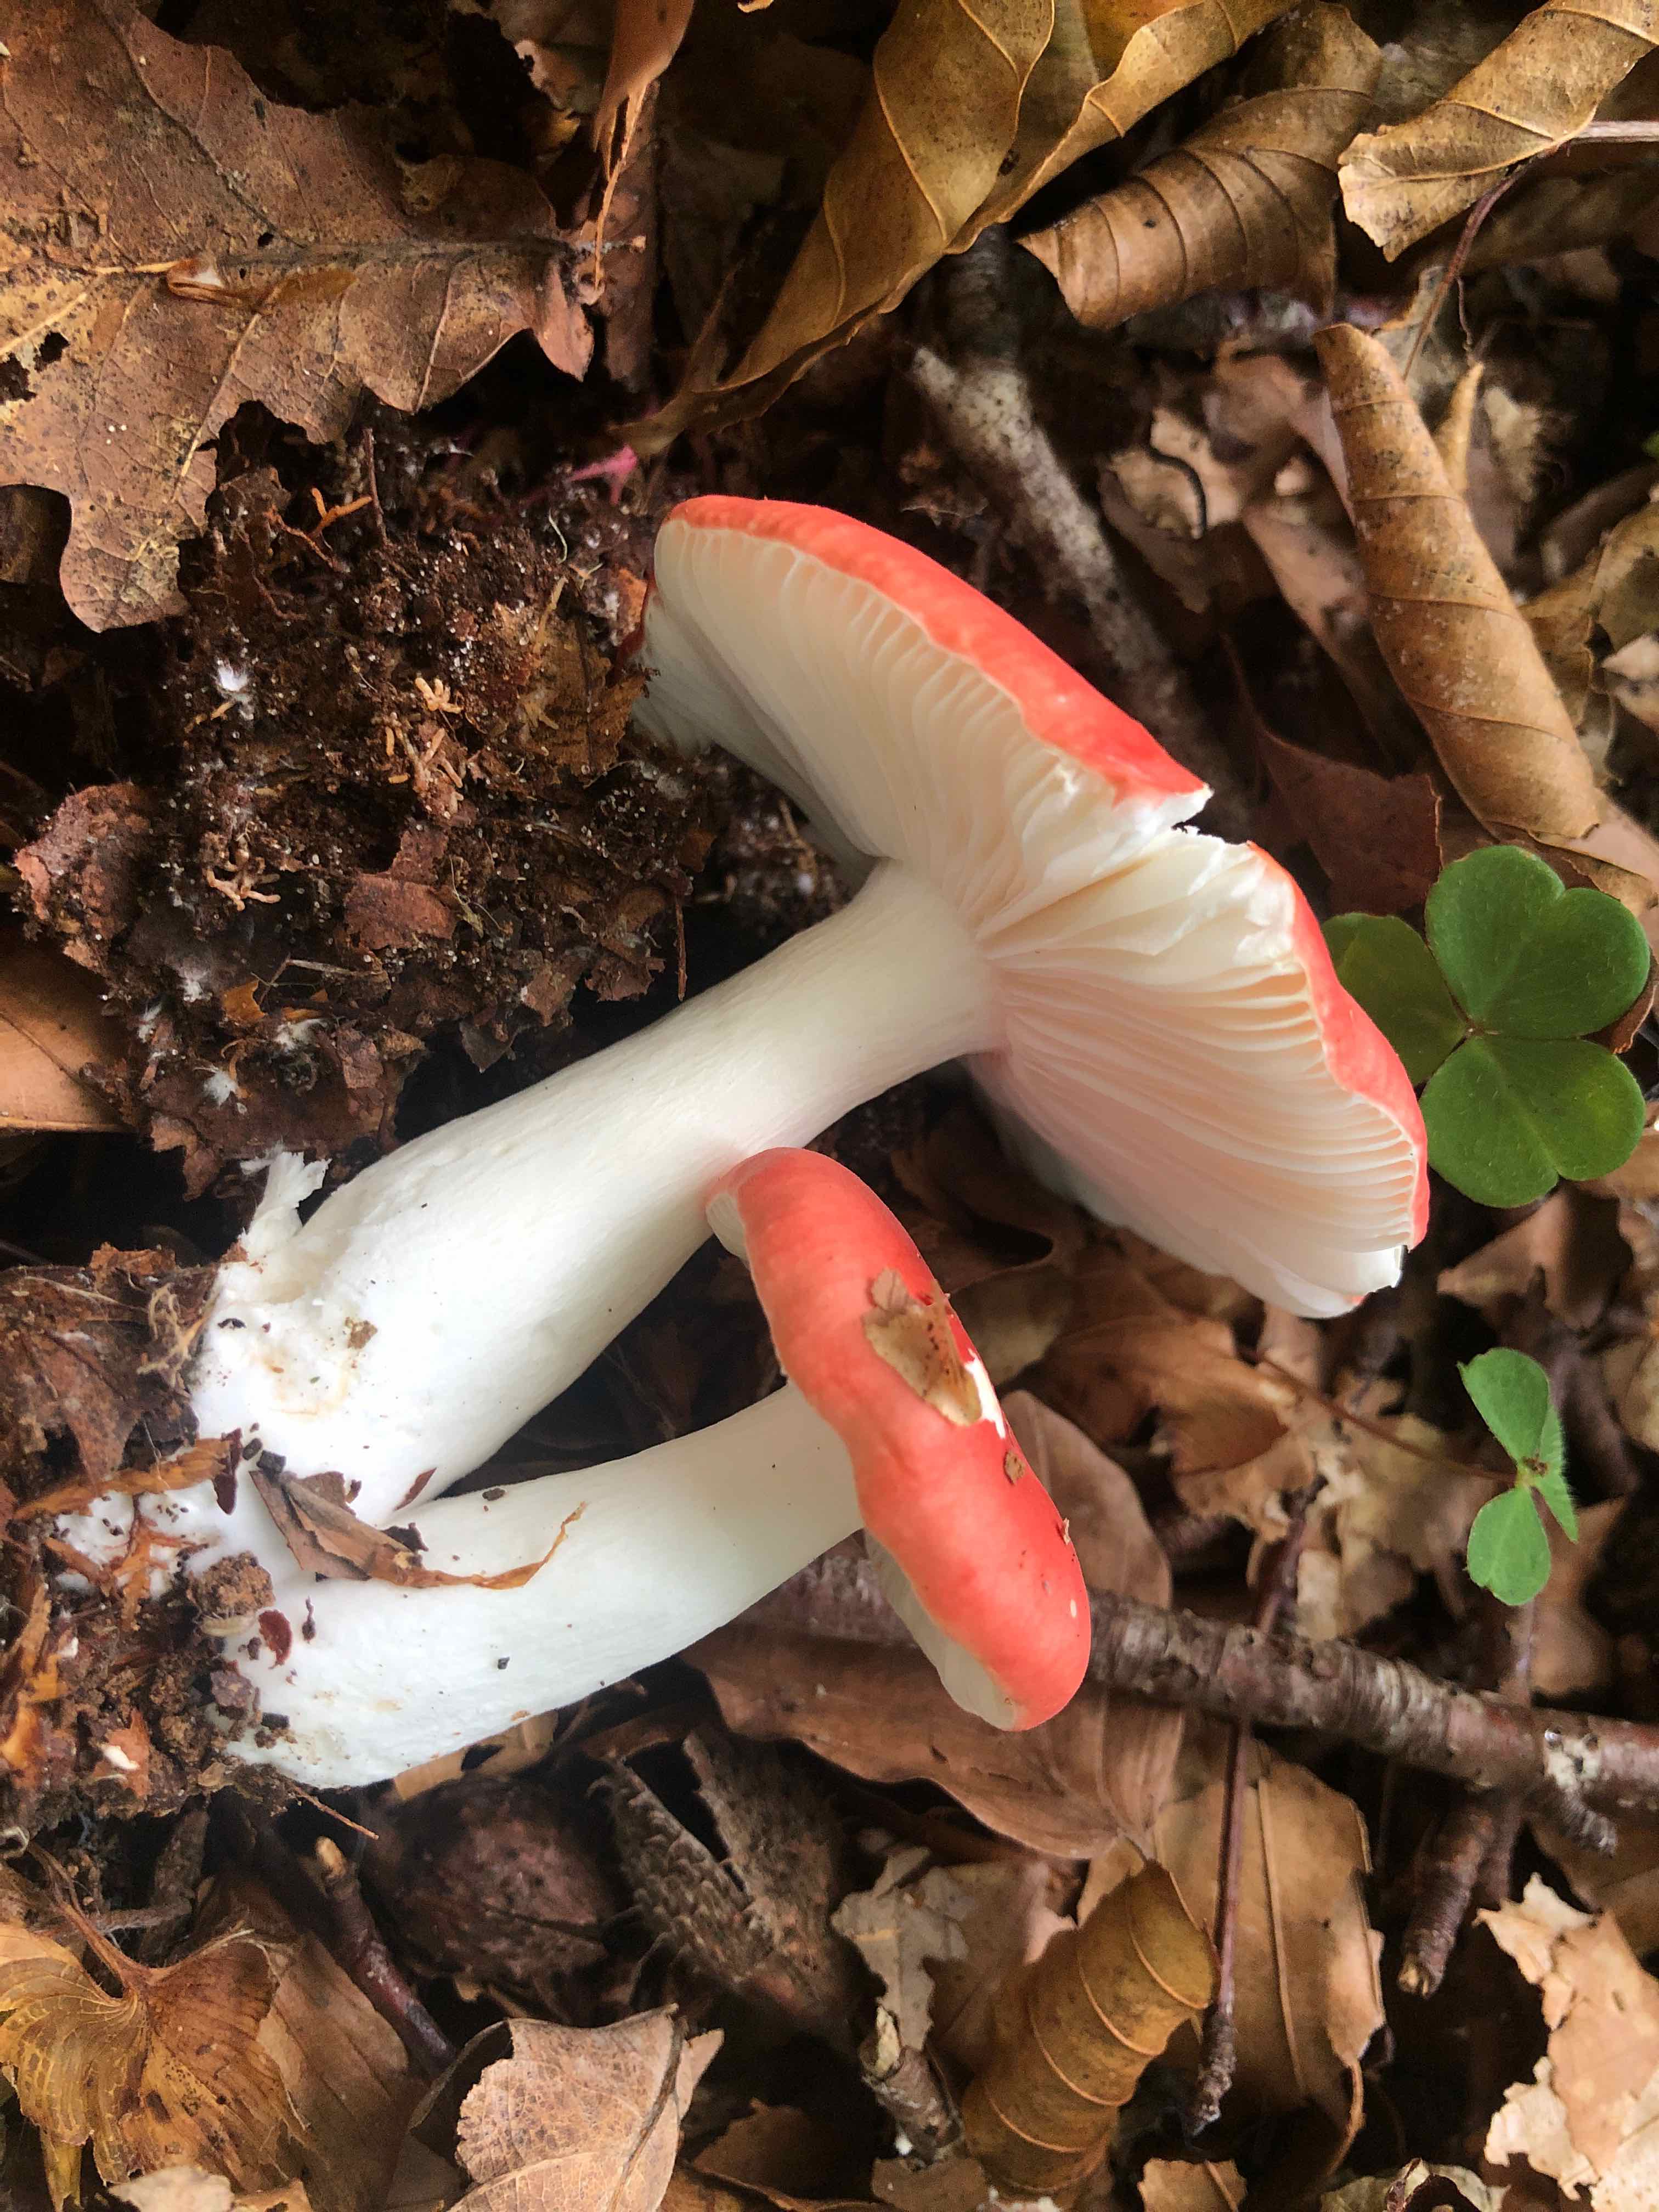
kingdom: Fungi
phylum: Basidiomycota
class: Agaricomycetes
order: Russulales
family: Russulaceae
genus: Russula
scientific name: Russula silvestris
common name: mellemstor gift-skørhat
